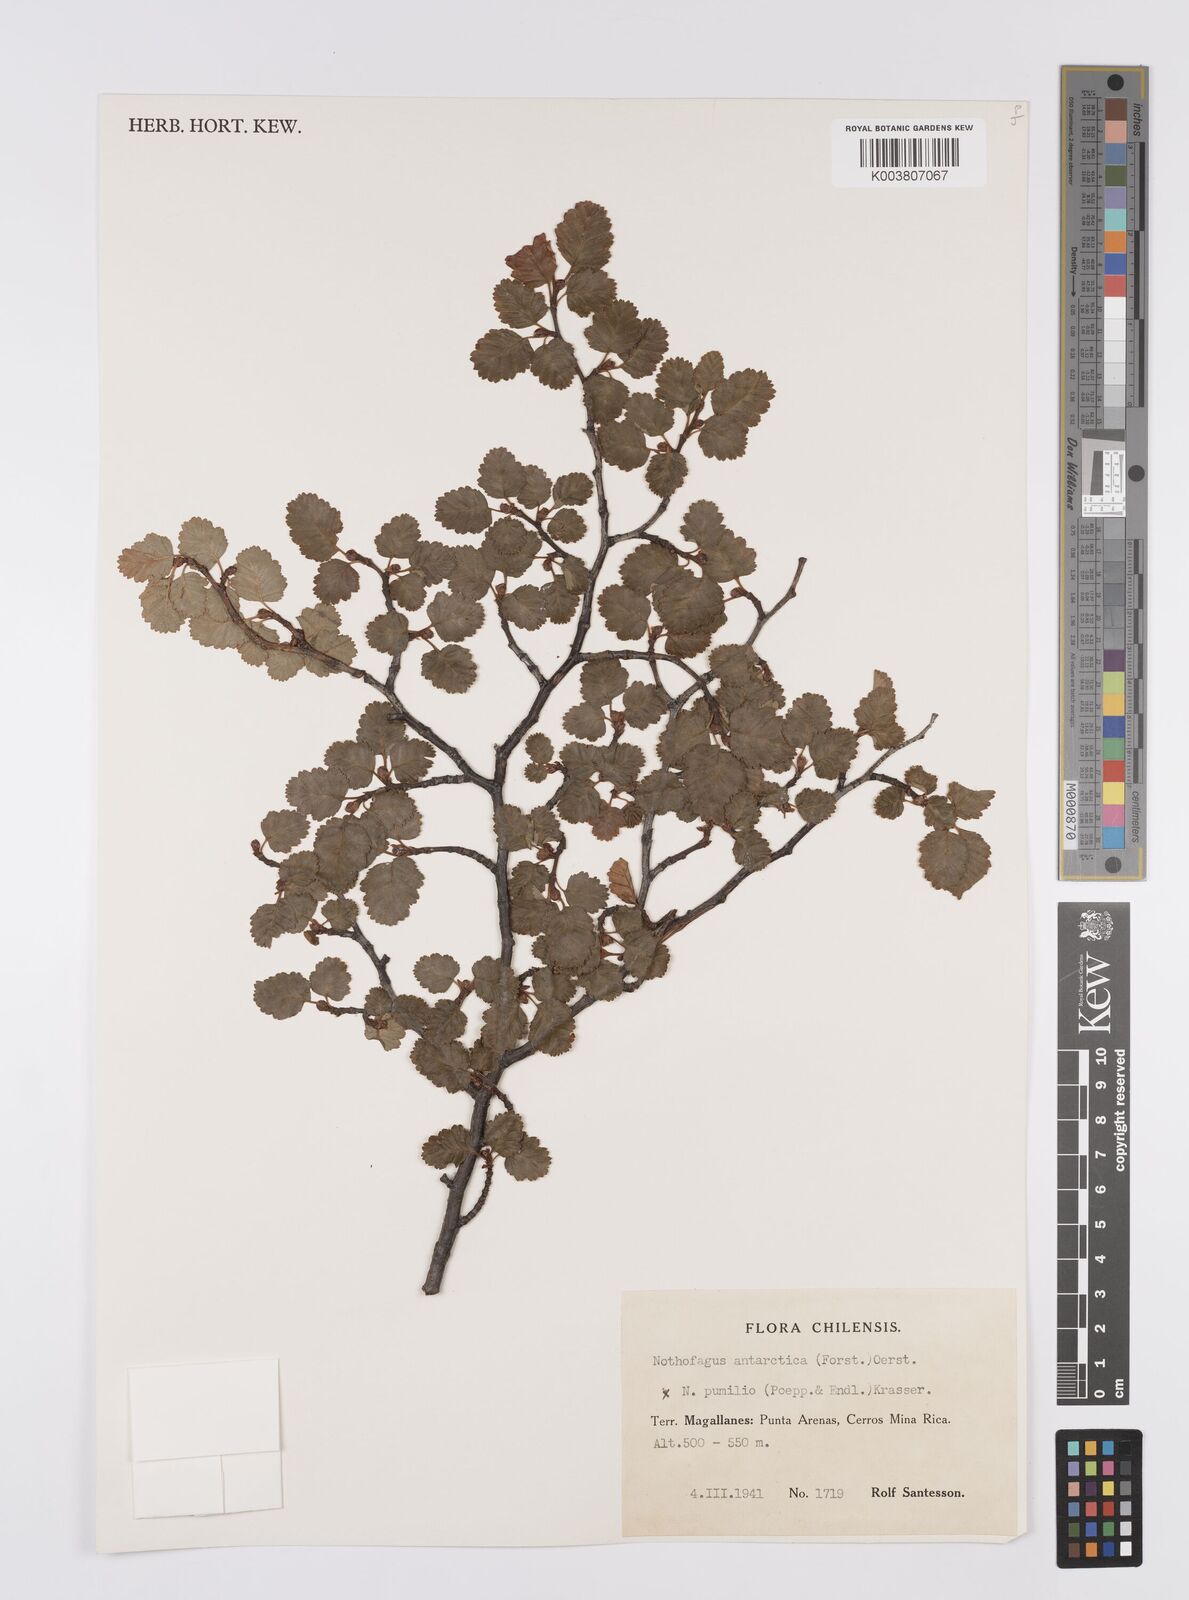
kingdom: Plantae
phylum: Tracheophyta
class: Magnoliopsida
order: Fagales
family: Nothofagaceae
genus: Nothofagus
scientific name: Nothofagus antarctica
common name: Antarctic beech
